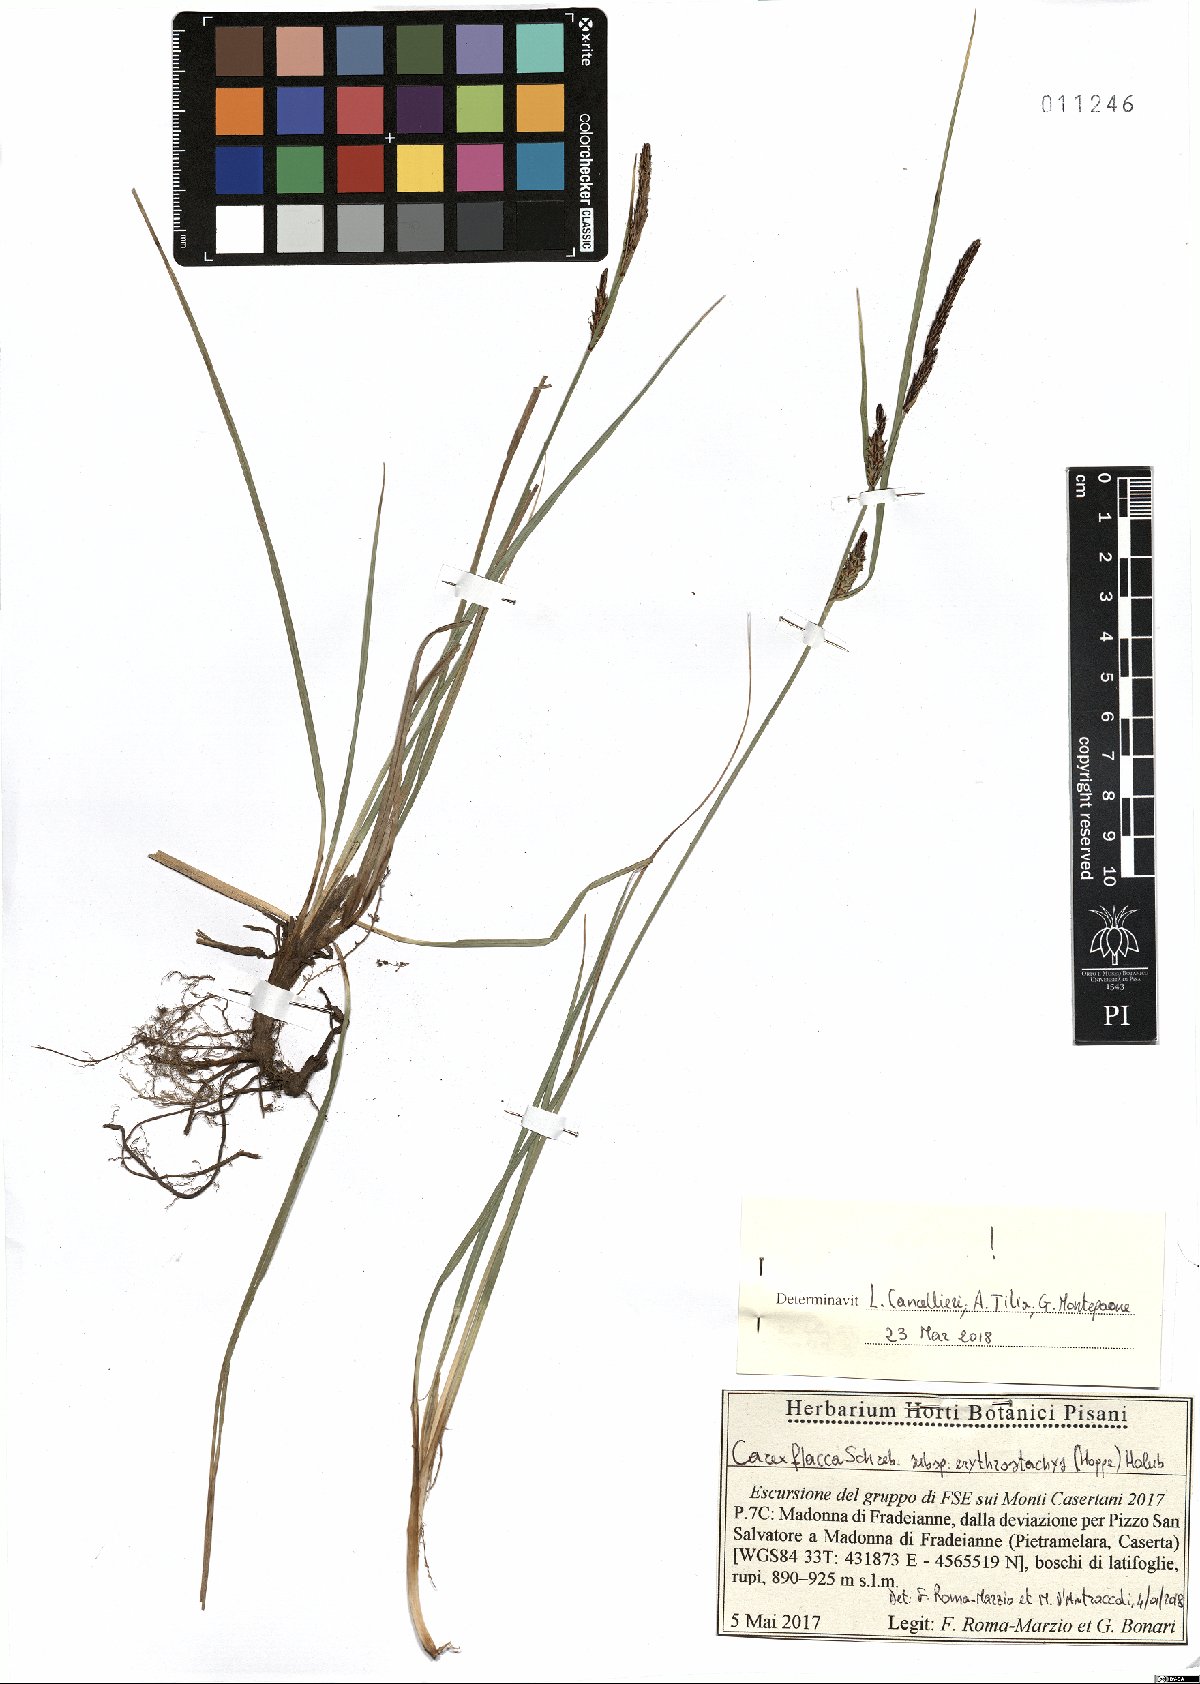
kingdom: Plantae
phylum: Tracheophyta
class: Liliopsida
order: Poales
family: Cyperaceae
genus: Carex
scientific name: Carex flacca
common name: Glaucous sedge
